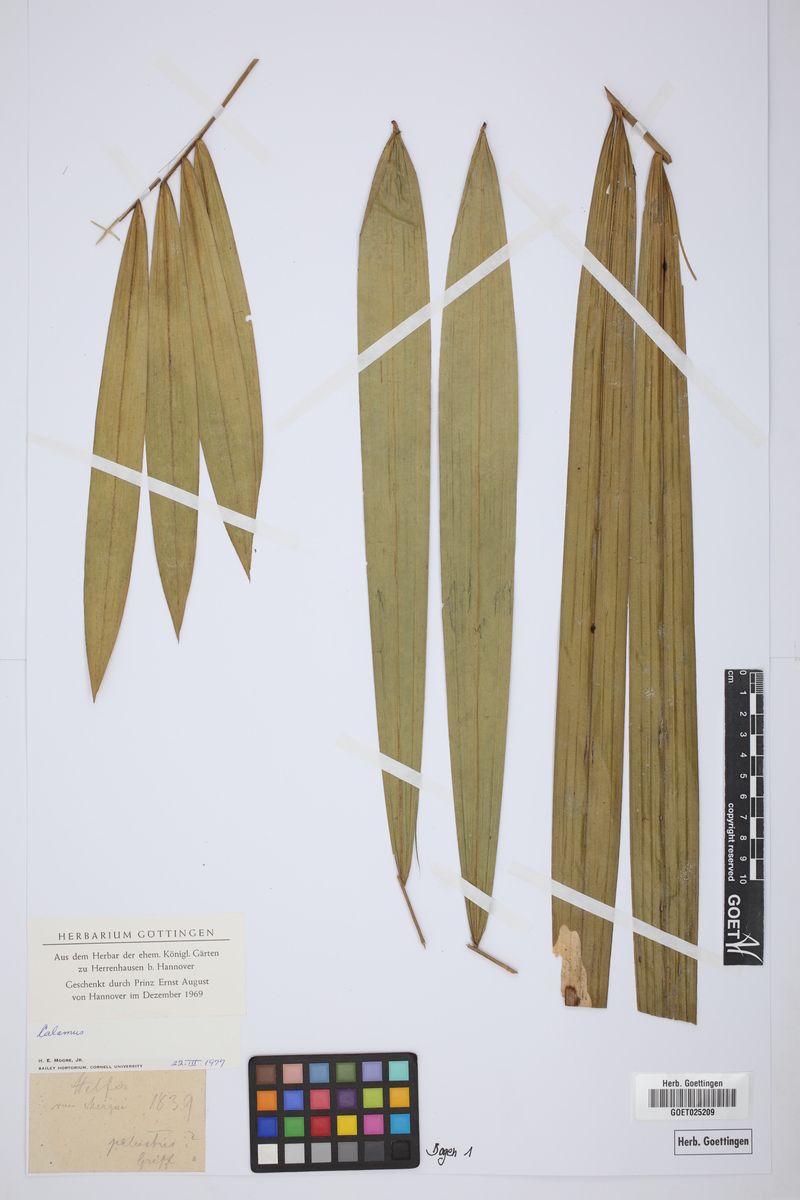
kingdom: Plantae
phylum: Tracheophyta
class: Liliopsida
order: Arecales
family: Arecaceae
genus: Calamus
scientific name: Calamus
